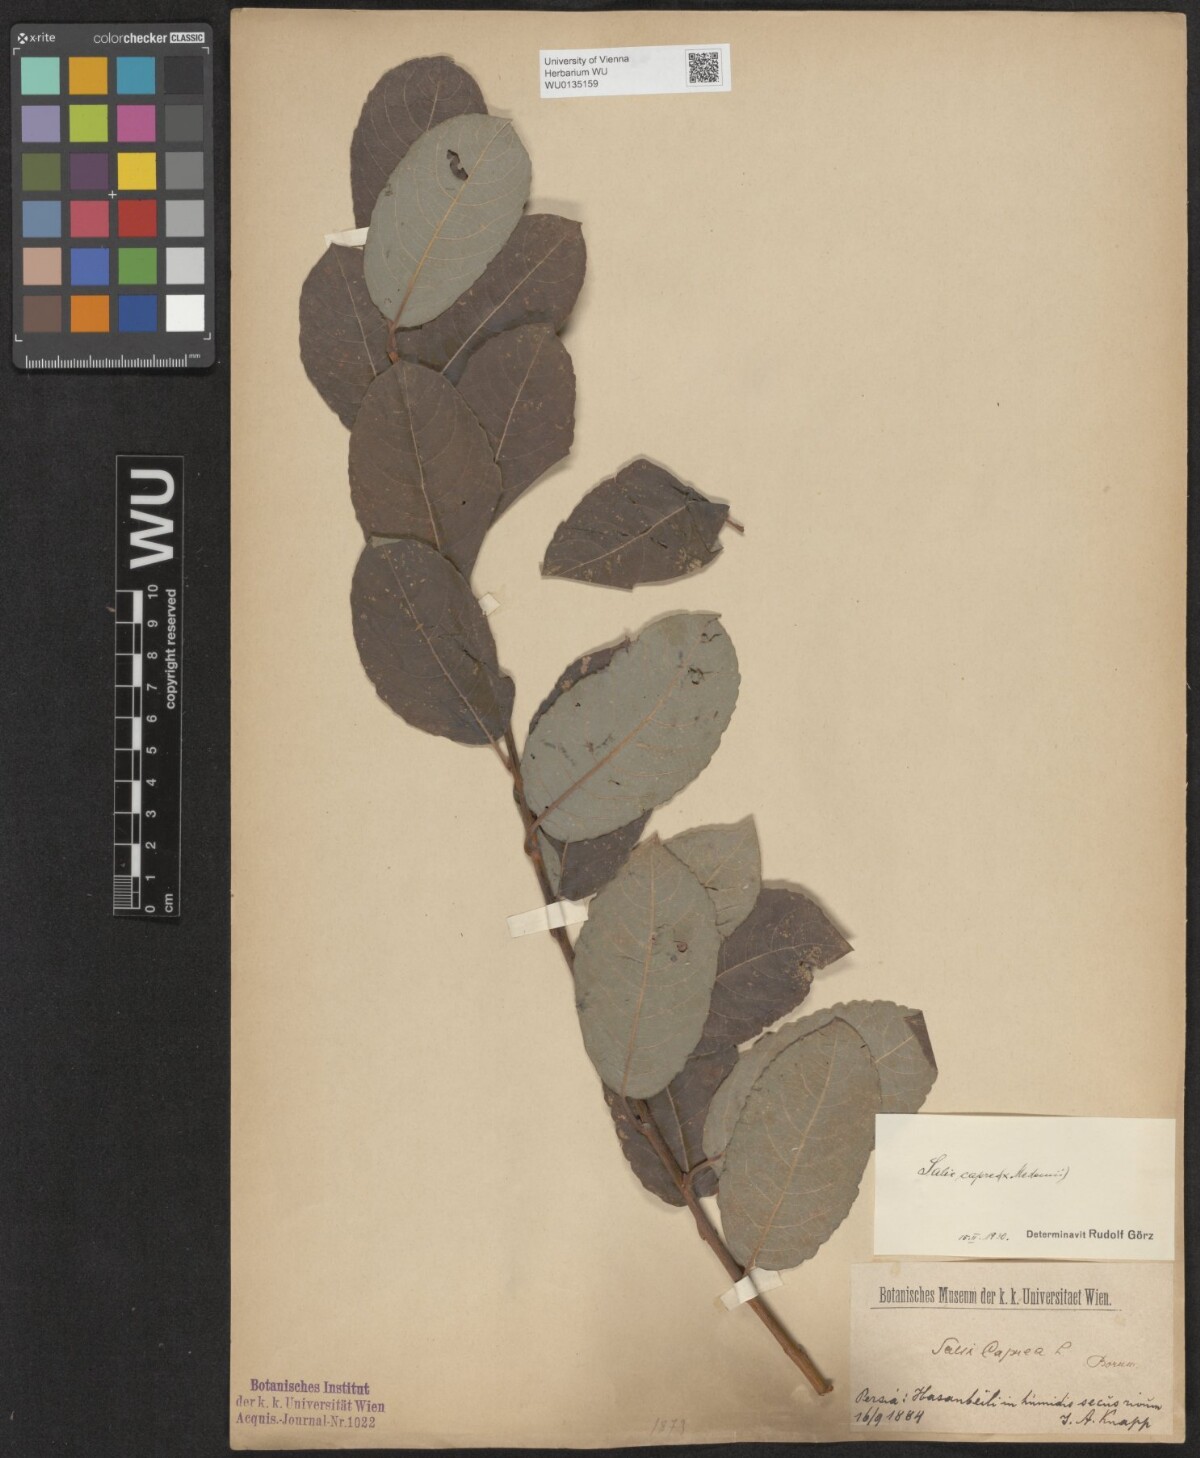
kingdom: Plantae
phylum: Tracheophyta
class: Magnoliopsida
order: Malpighiales
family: Salicaceae
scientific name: Salicaceae
